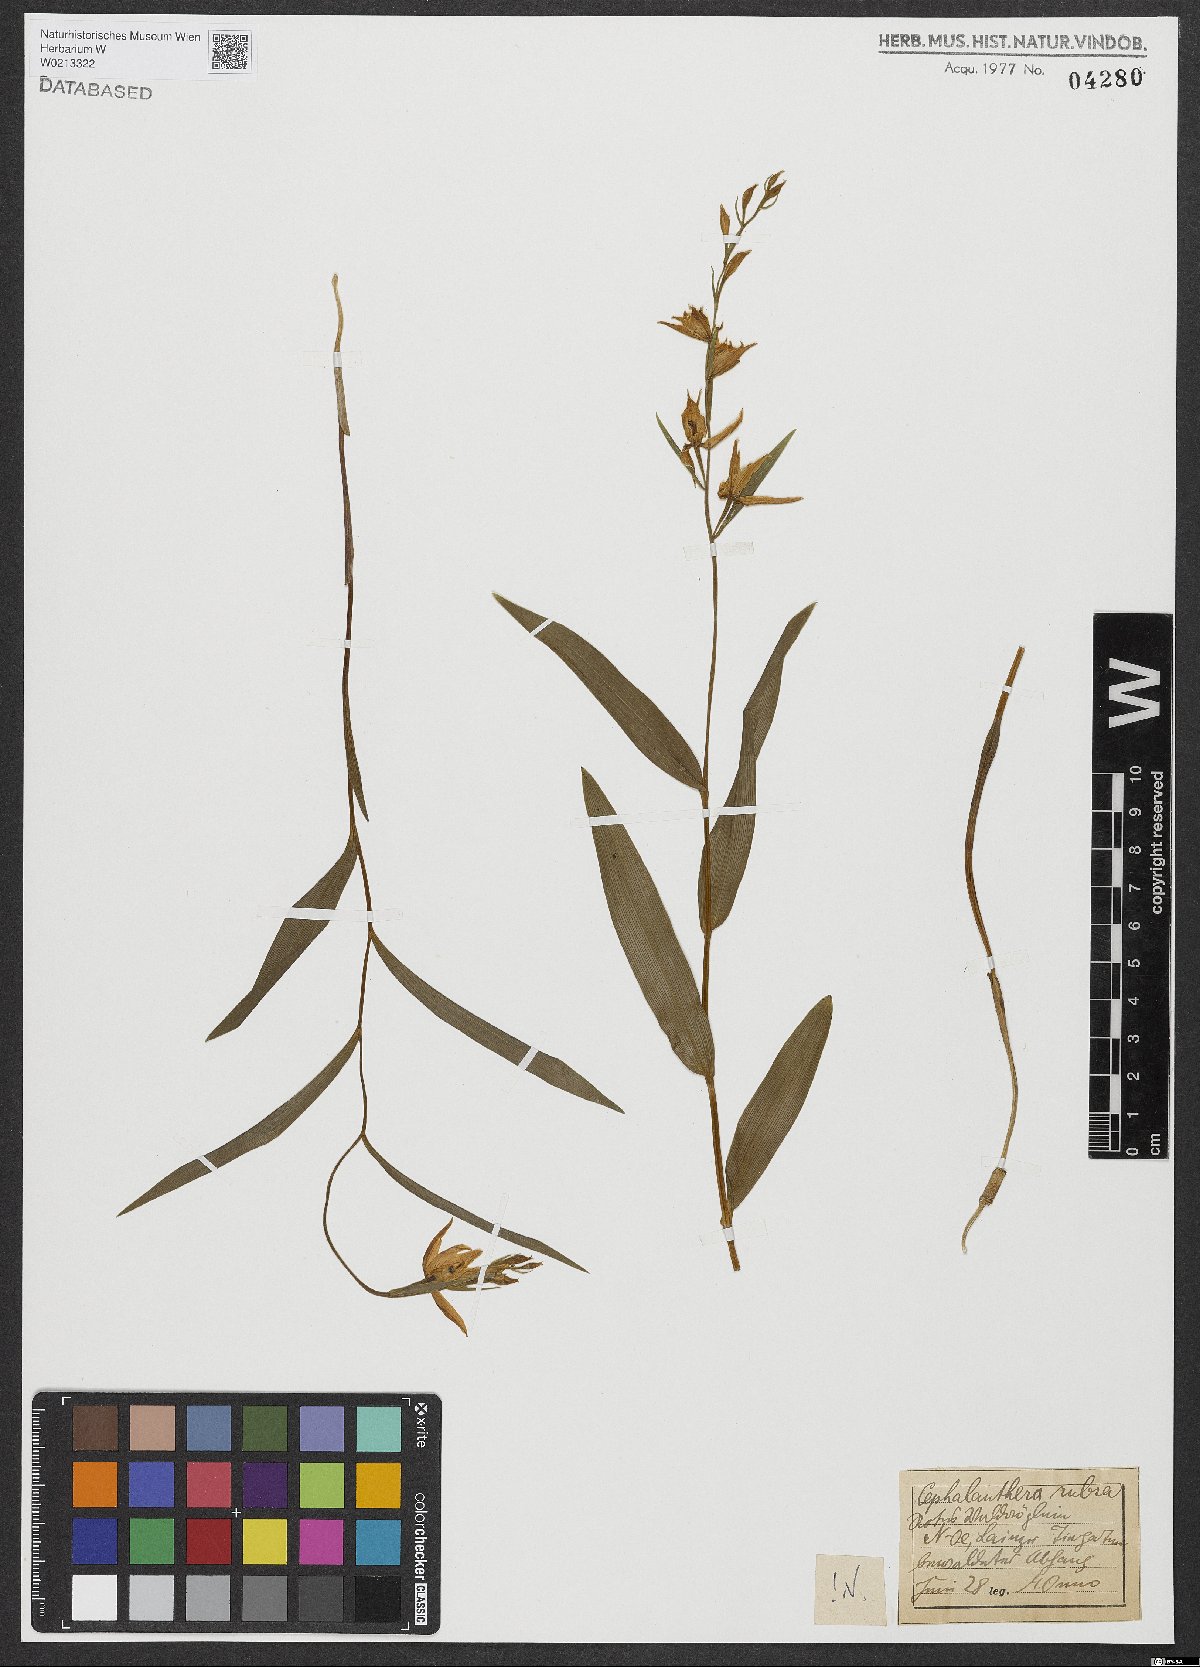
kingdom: Plantae
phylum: Tracheophyta
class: Liliopsida
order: Asparagales
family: Orchidaceae
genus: Cephalanthera
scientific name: Cephalanthera rubra
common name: Red helleborine
